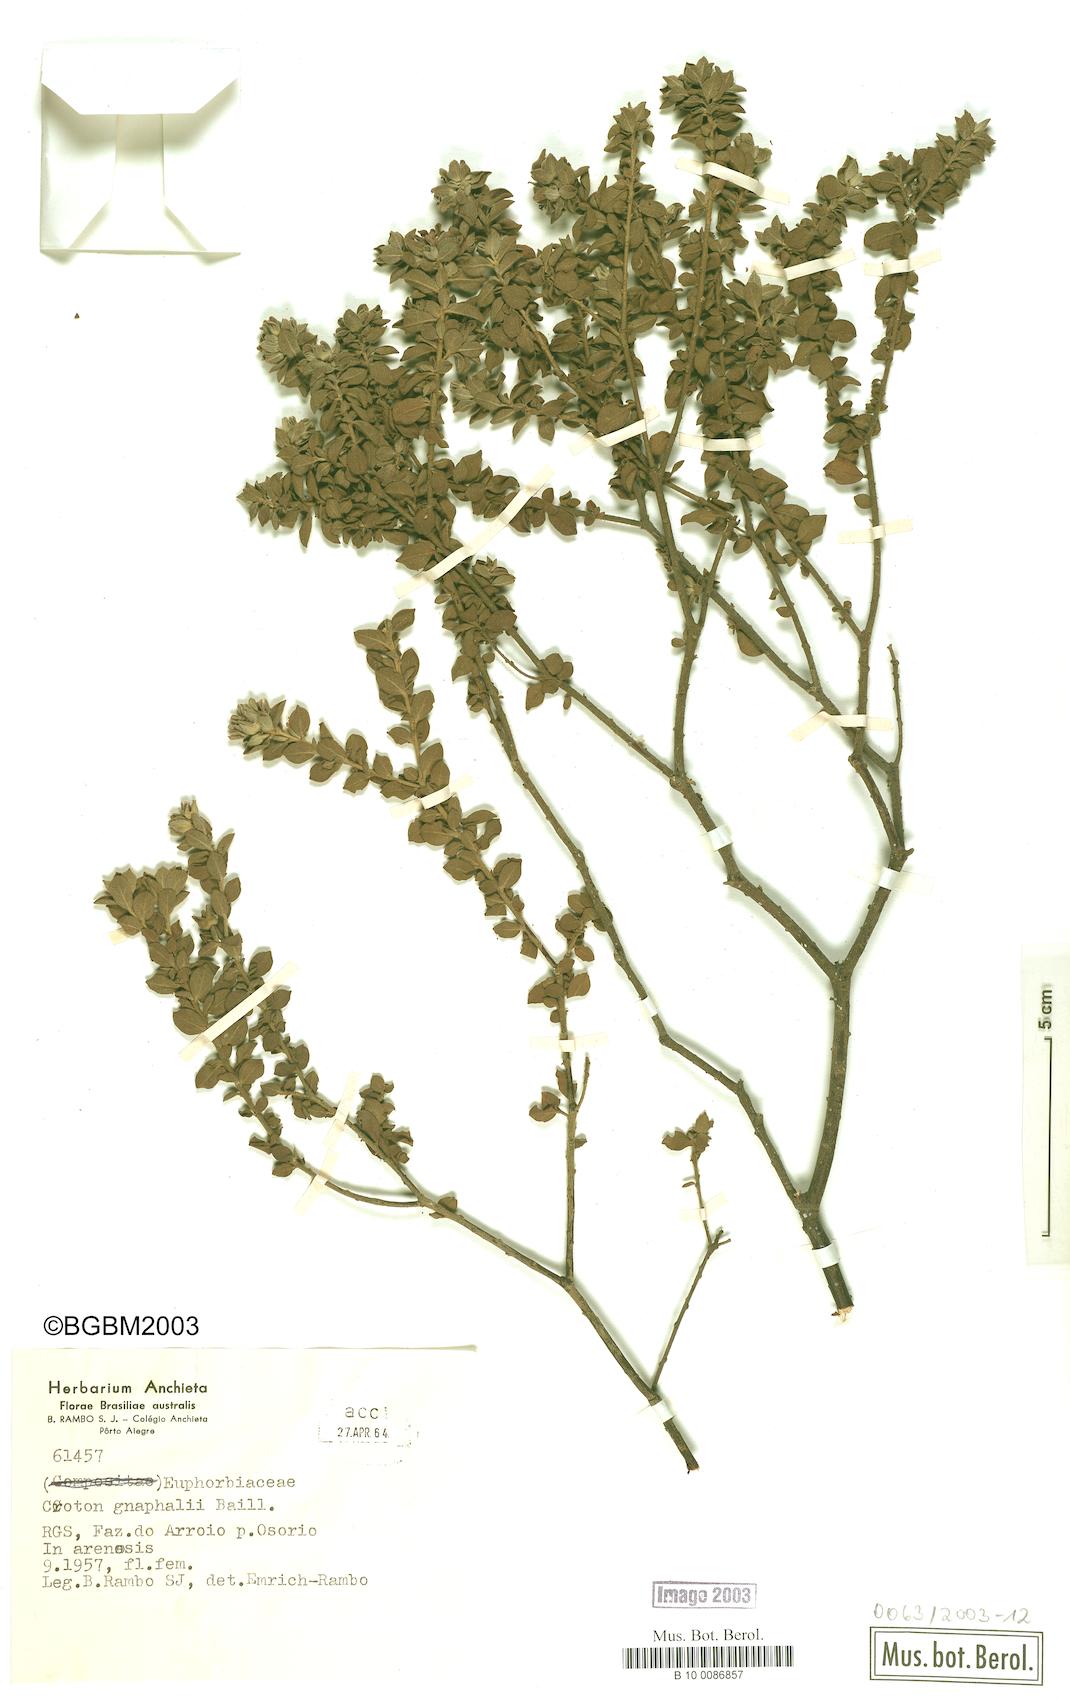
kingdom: Plantae
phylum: Tracheophyta
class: Magnoliopsida
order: Malpighiales
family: Euphorbiaceae
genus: Croton
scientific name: Croton gnaphalii
